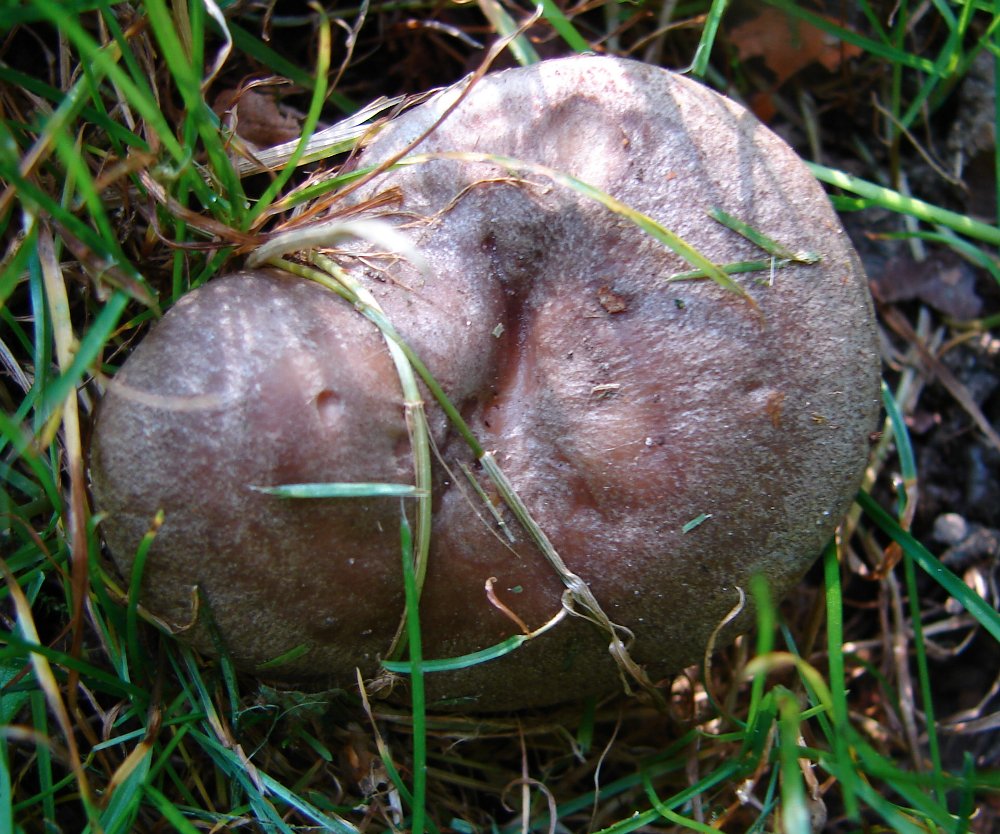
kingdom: Fungi
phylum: Basidiomycota
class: Agaricomycetes
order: Russulales
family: Russulaceae
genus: Lactarius
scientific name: Lactarius pyrogalus
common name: hassel-mælkehat
